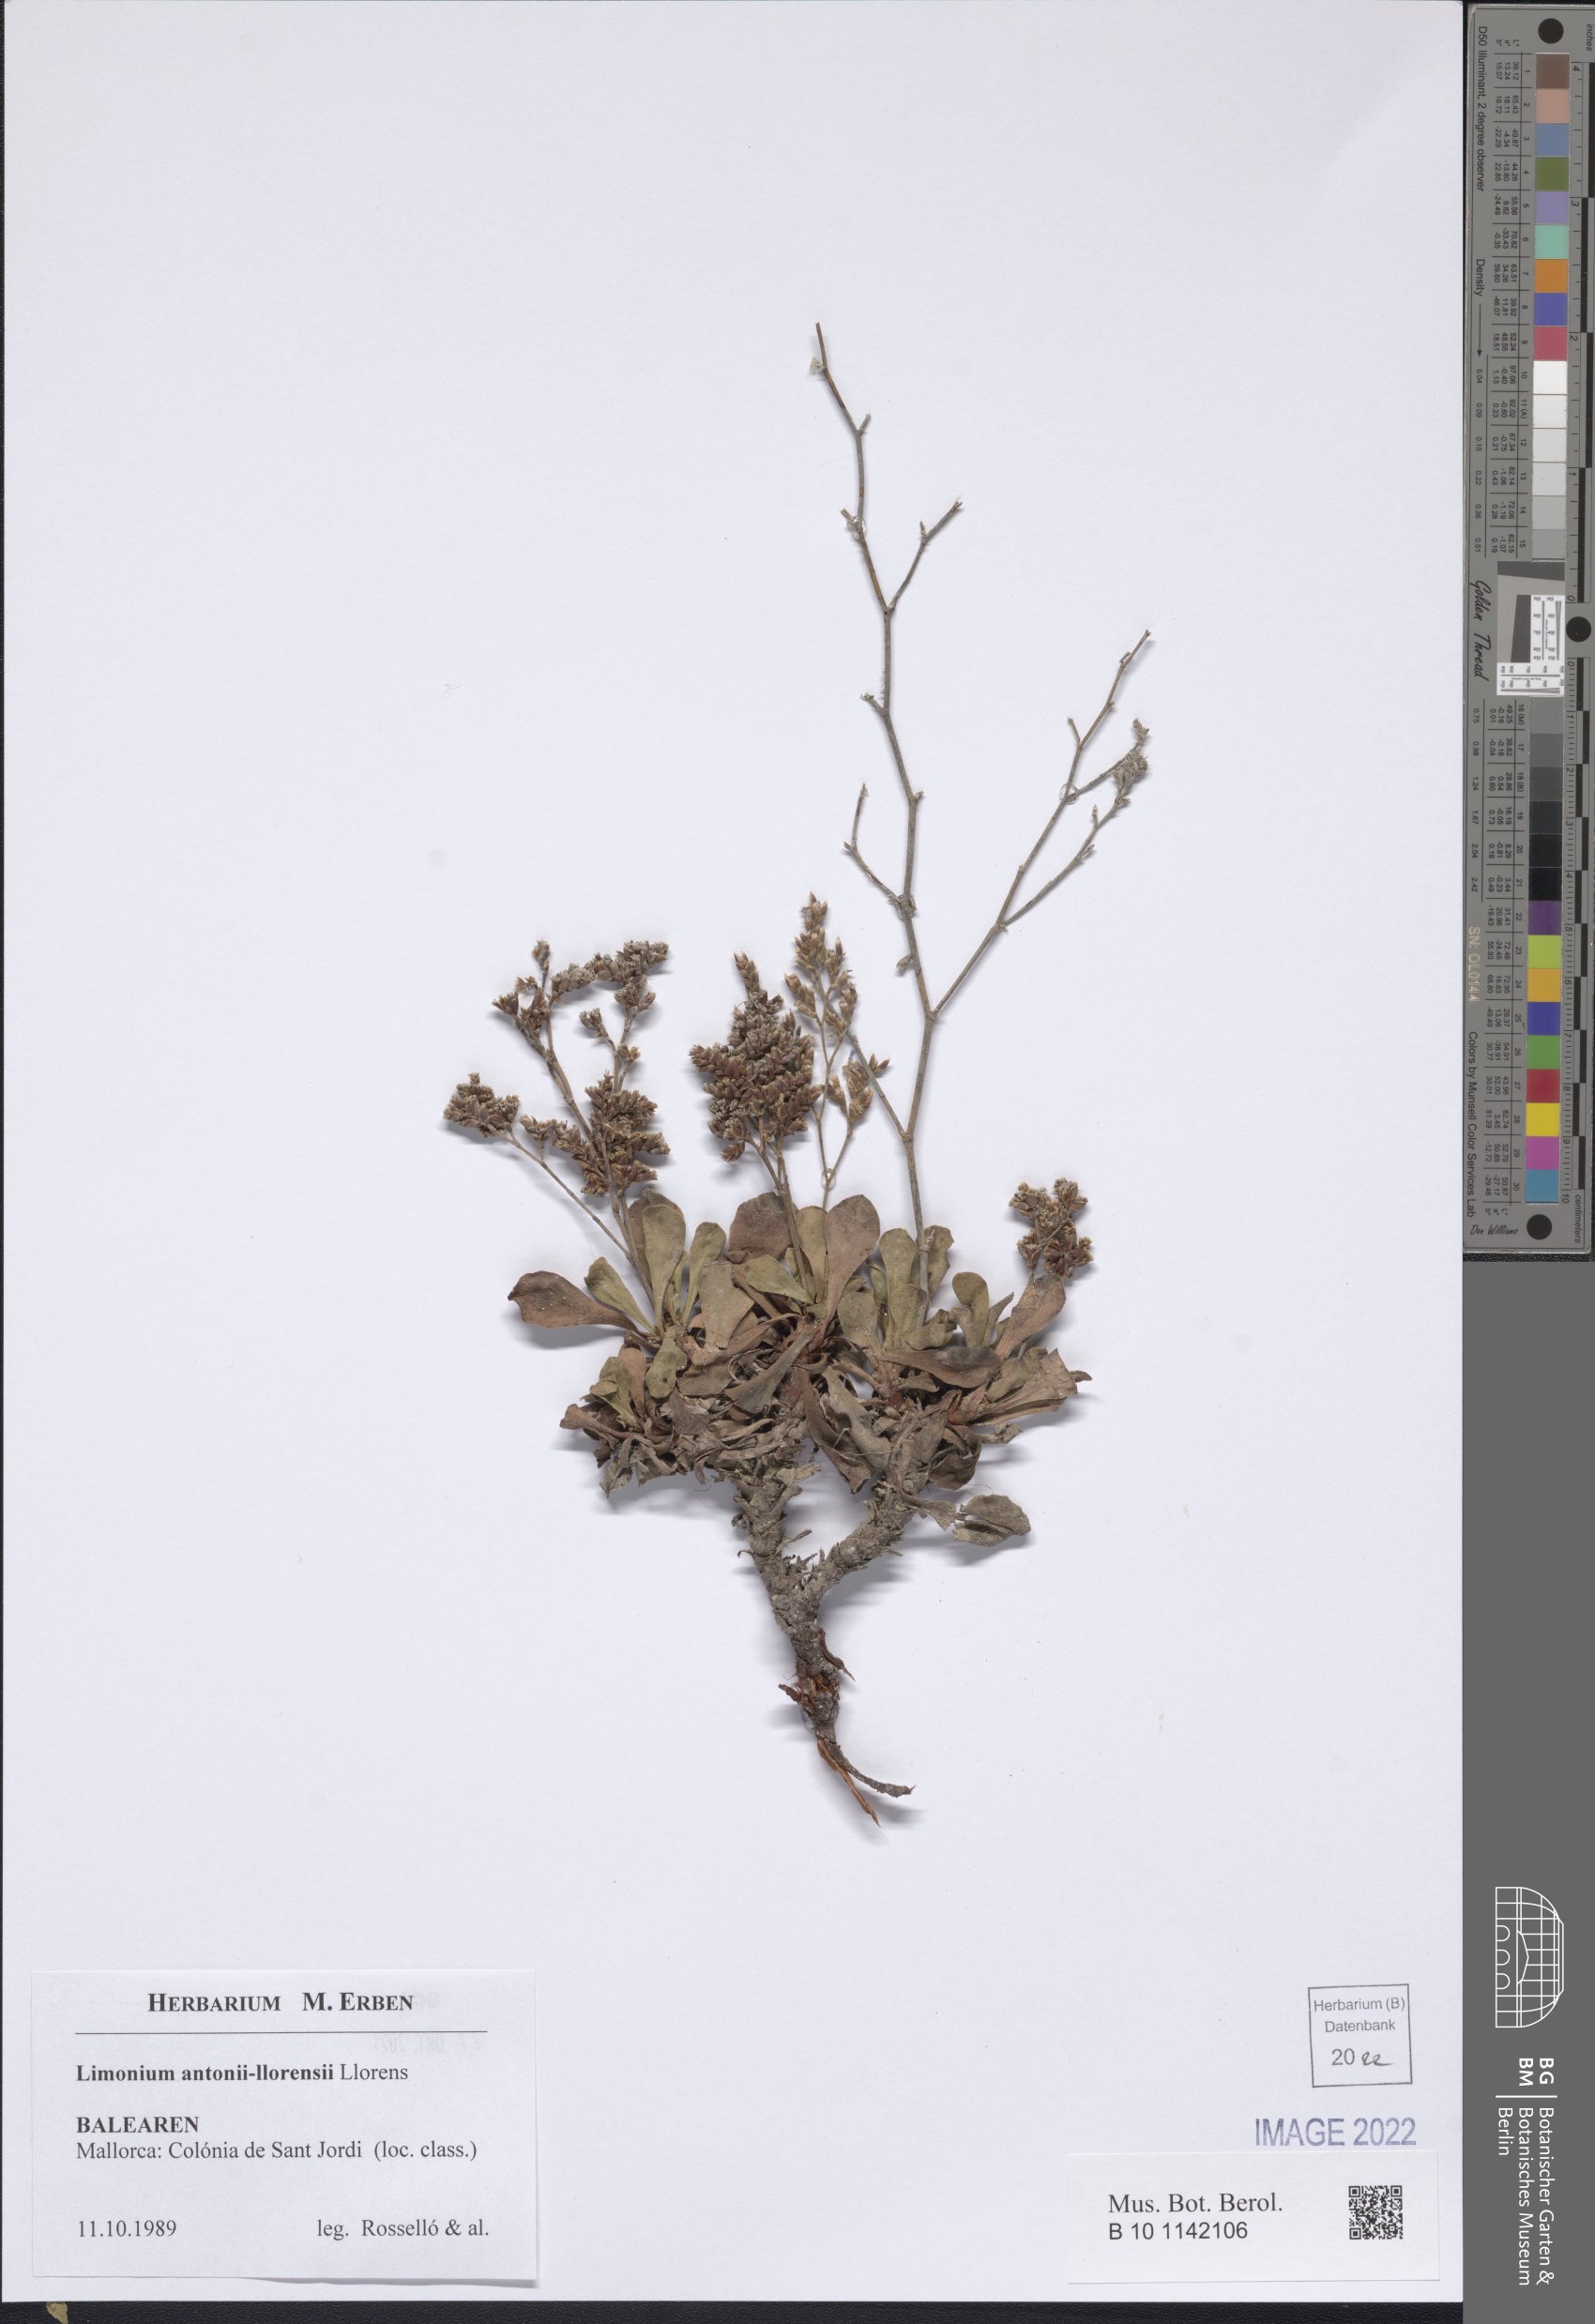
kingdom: Plantae
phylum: Tracheophyta
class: Magnoliopsida
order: Caryophyllales
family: Plumbaginaceae
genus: Limonium
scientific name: Limonium antonii-llorensii
